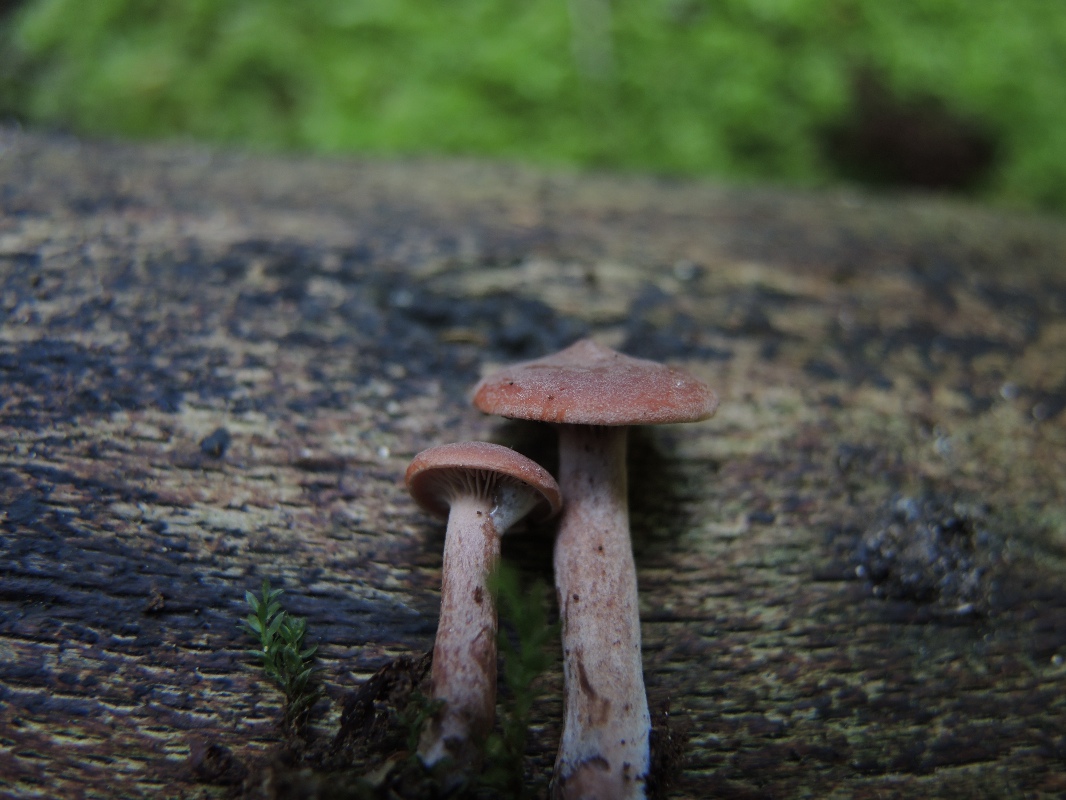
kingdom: Fungi
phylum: Basidiomycota
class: Agaricomycetes
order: Russulales
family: Russulaceae
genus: Lactarius
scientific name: Lactarius camphoratus
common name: kamfer-mælkehat
